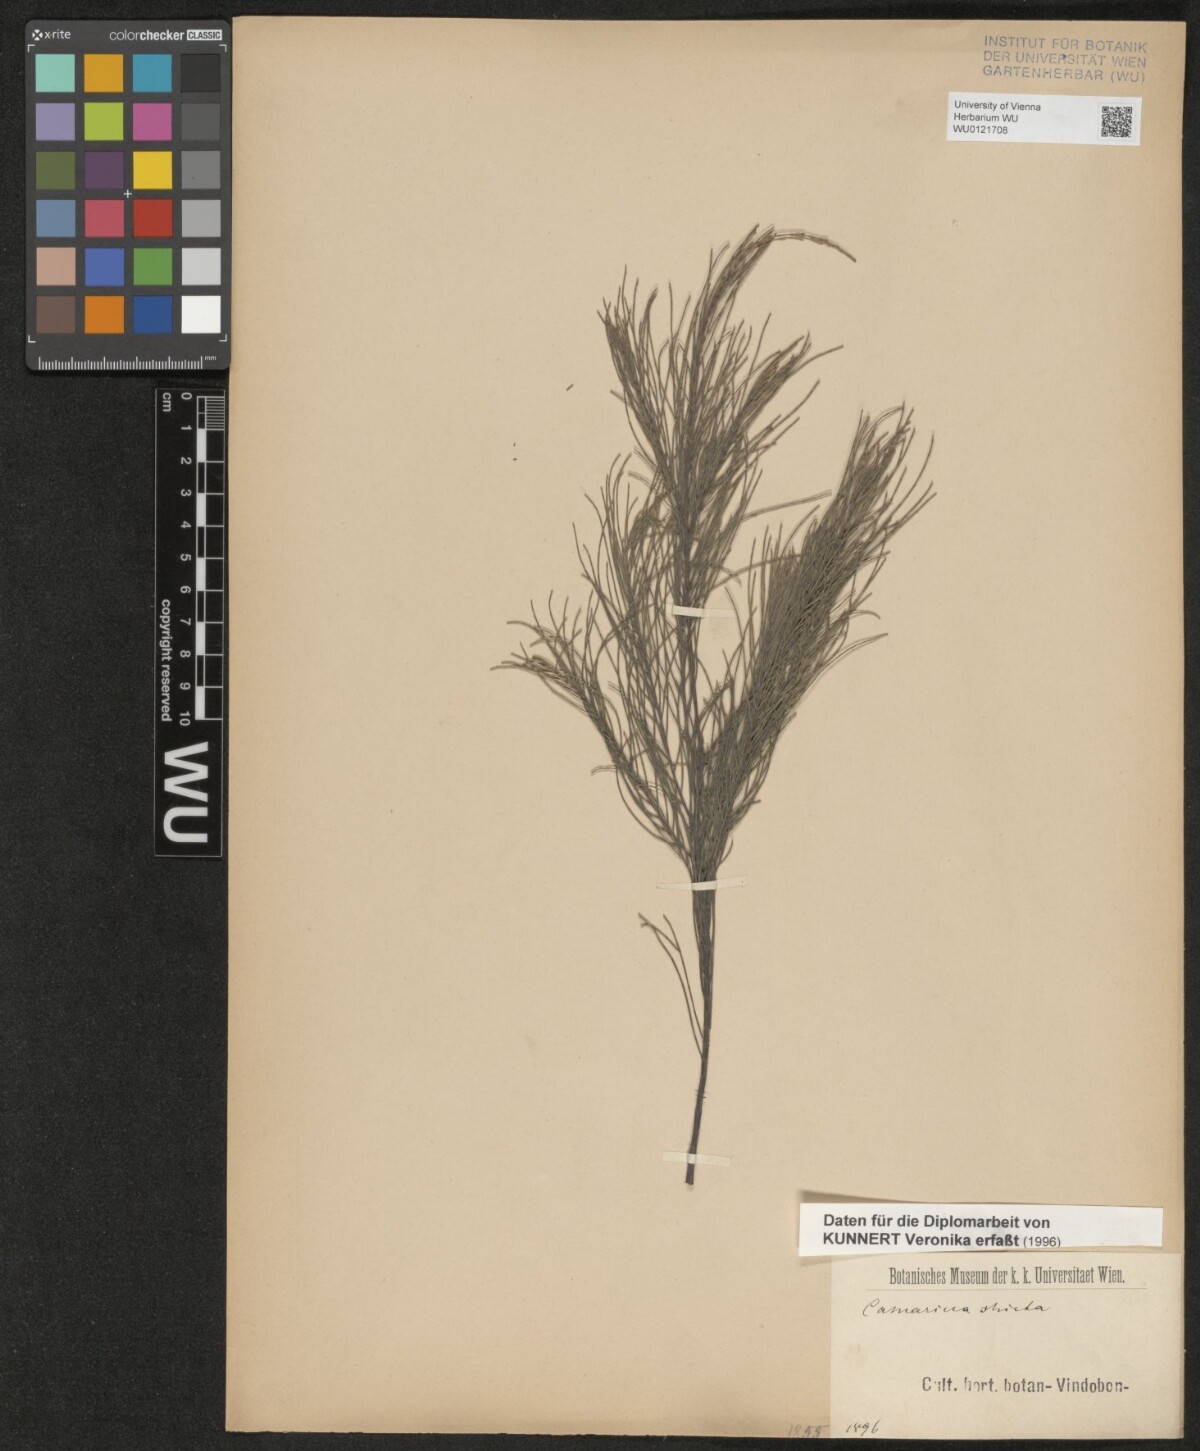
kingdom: Plantae
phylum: Tracheophyta
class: Magnoliopsida
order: Fagales
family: Casuarinaceae
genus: Casuarina
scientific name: Casuarina stricta
